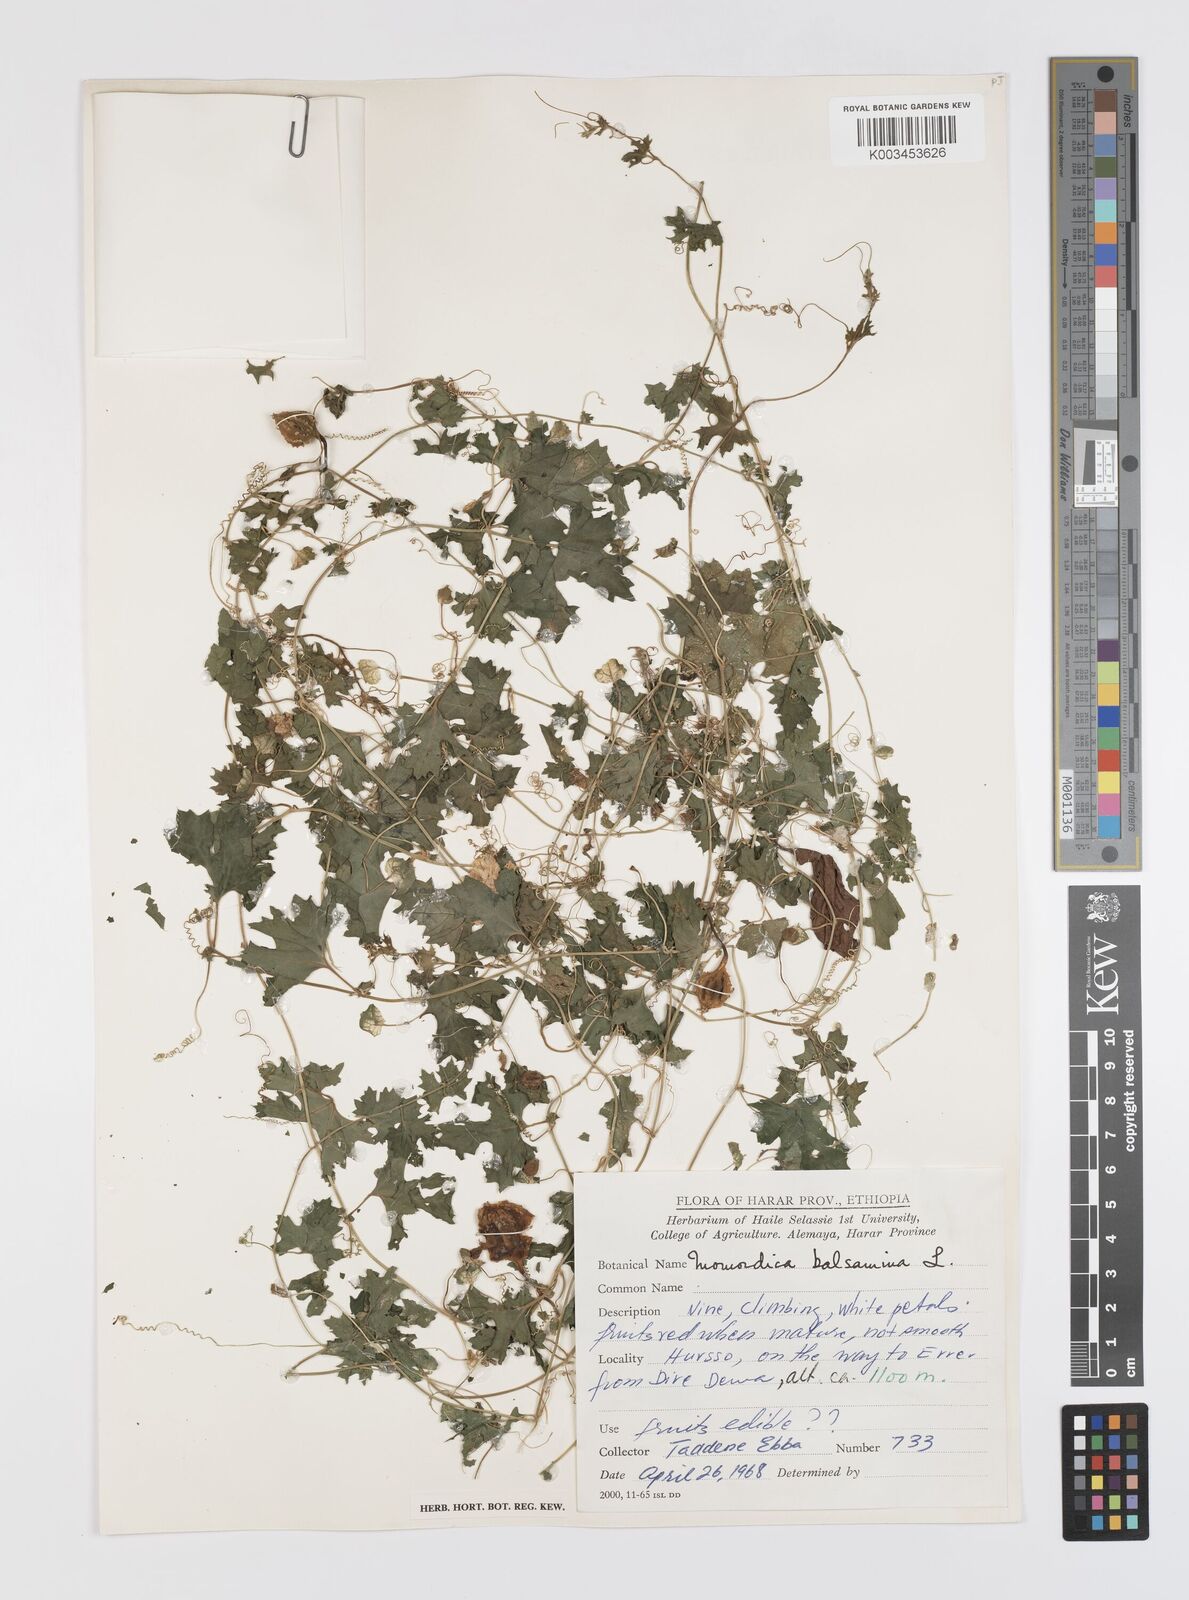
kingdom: Plantae
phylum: Tracheophyta
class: Magnoliopsida
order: Cucurbitales
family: Cucurbitaceae
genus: Momordica
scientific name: Momordica balsamina
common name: Southern balsampear
